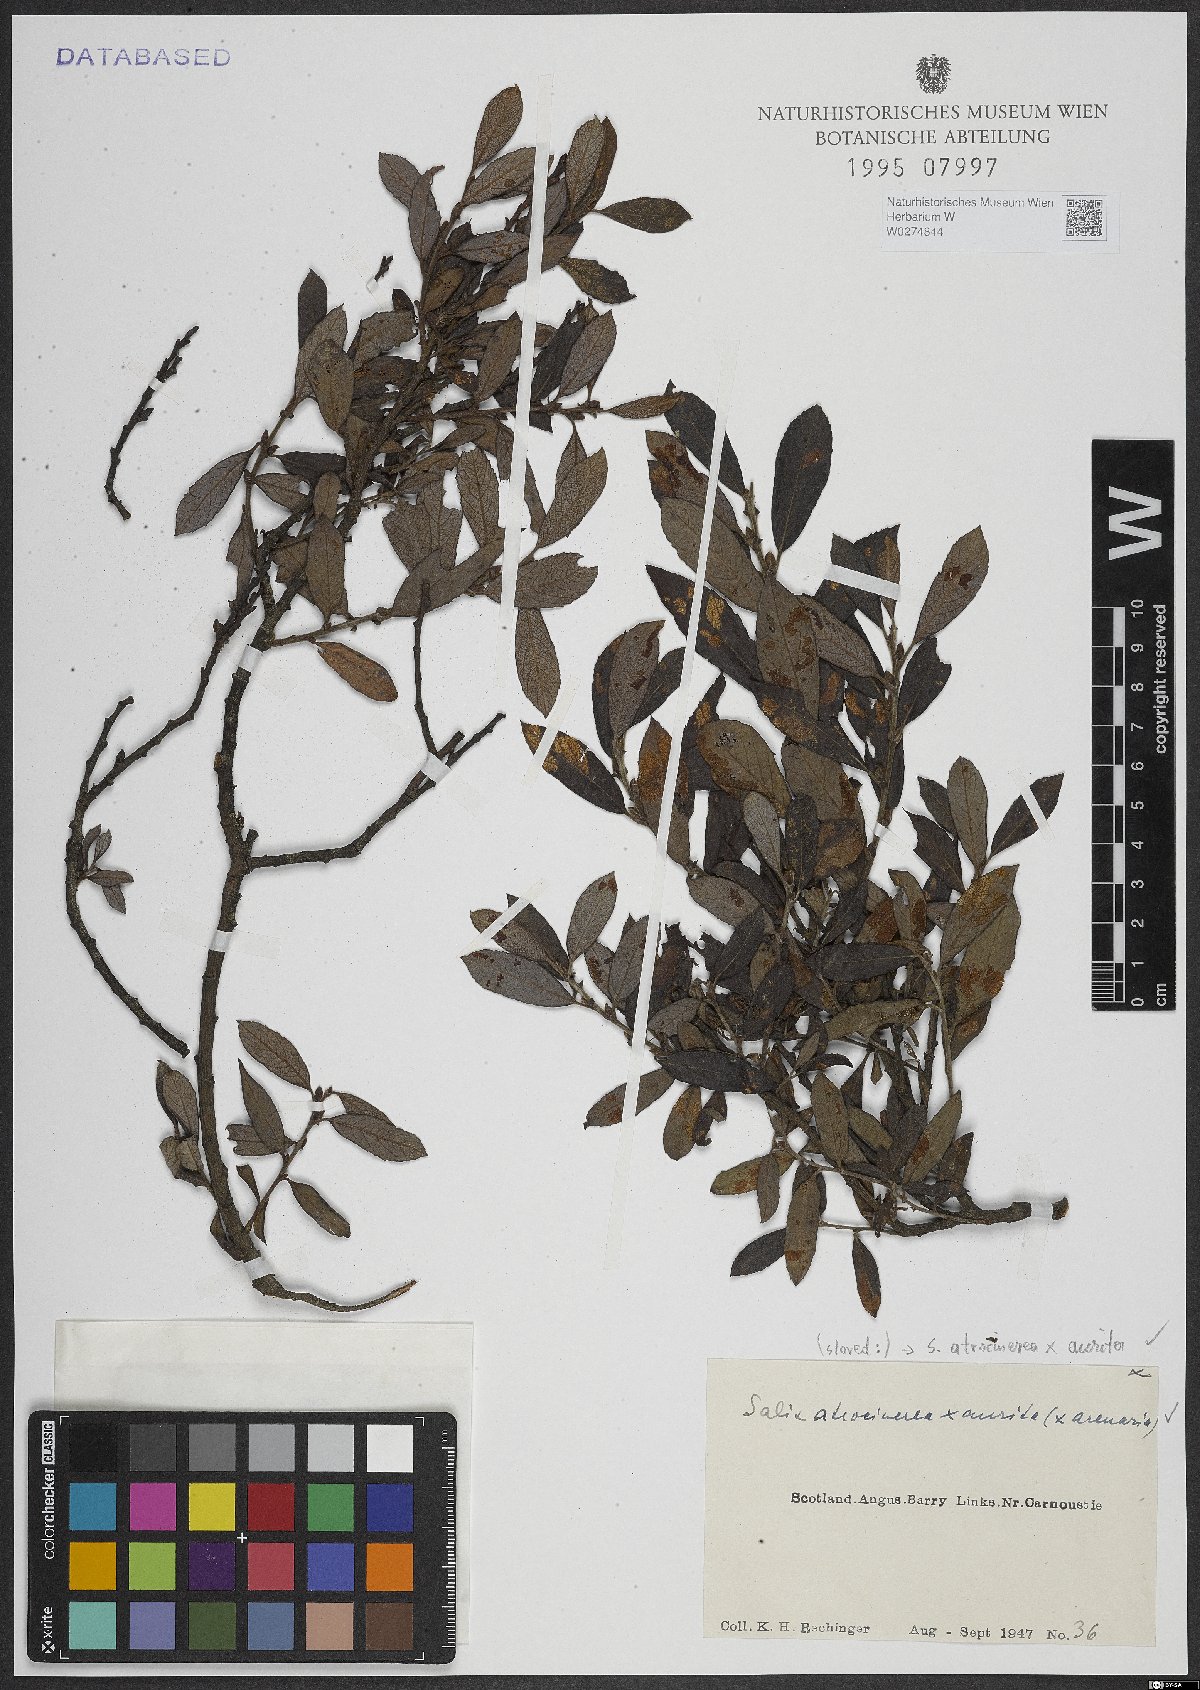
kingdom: Plantae
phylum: Tracheophyta
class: Magnoliopsida
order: Malpighiales
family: Salicaceae
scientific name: Salicaceae
